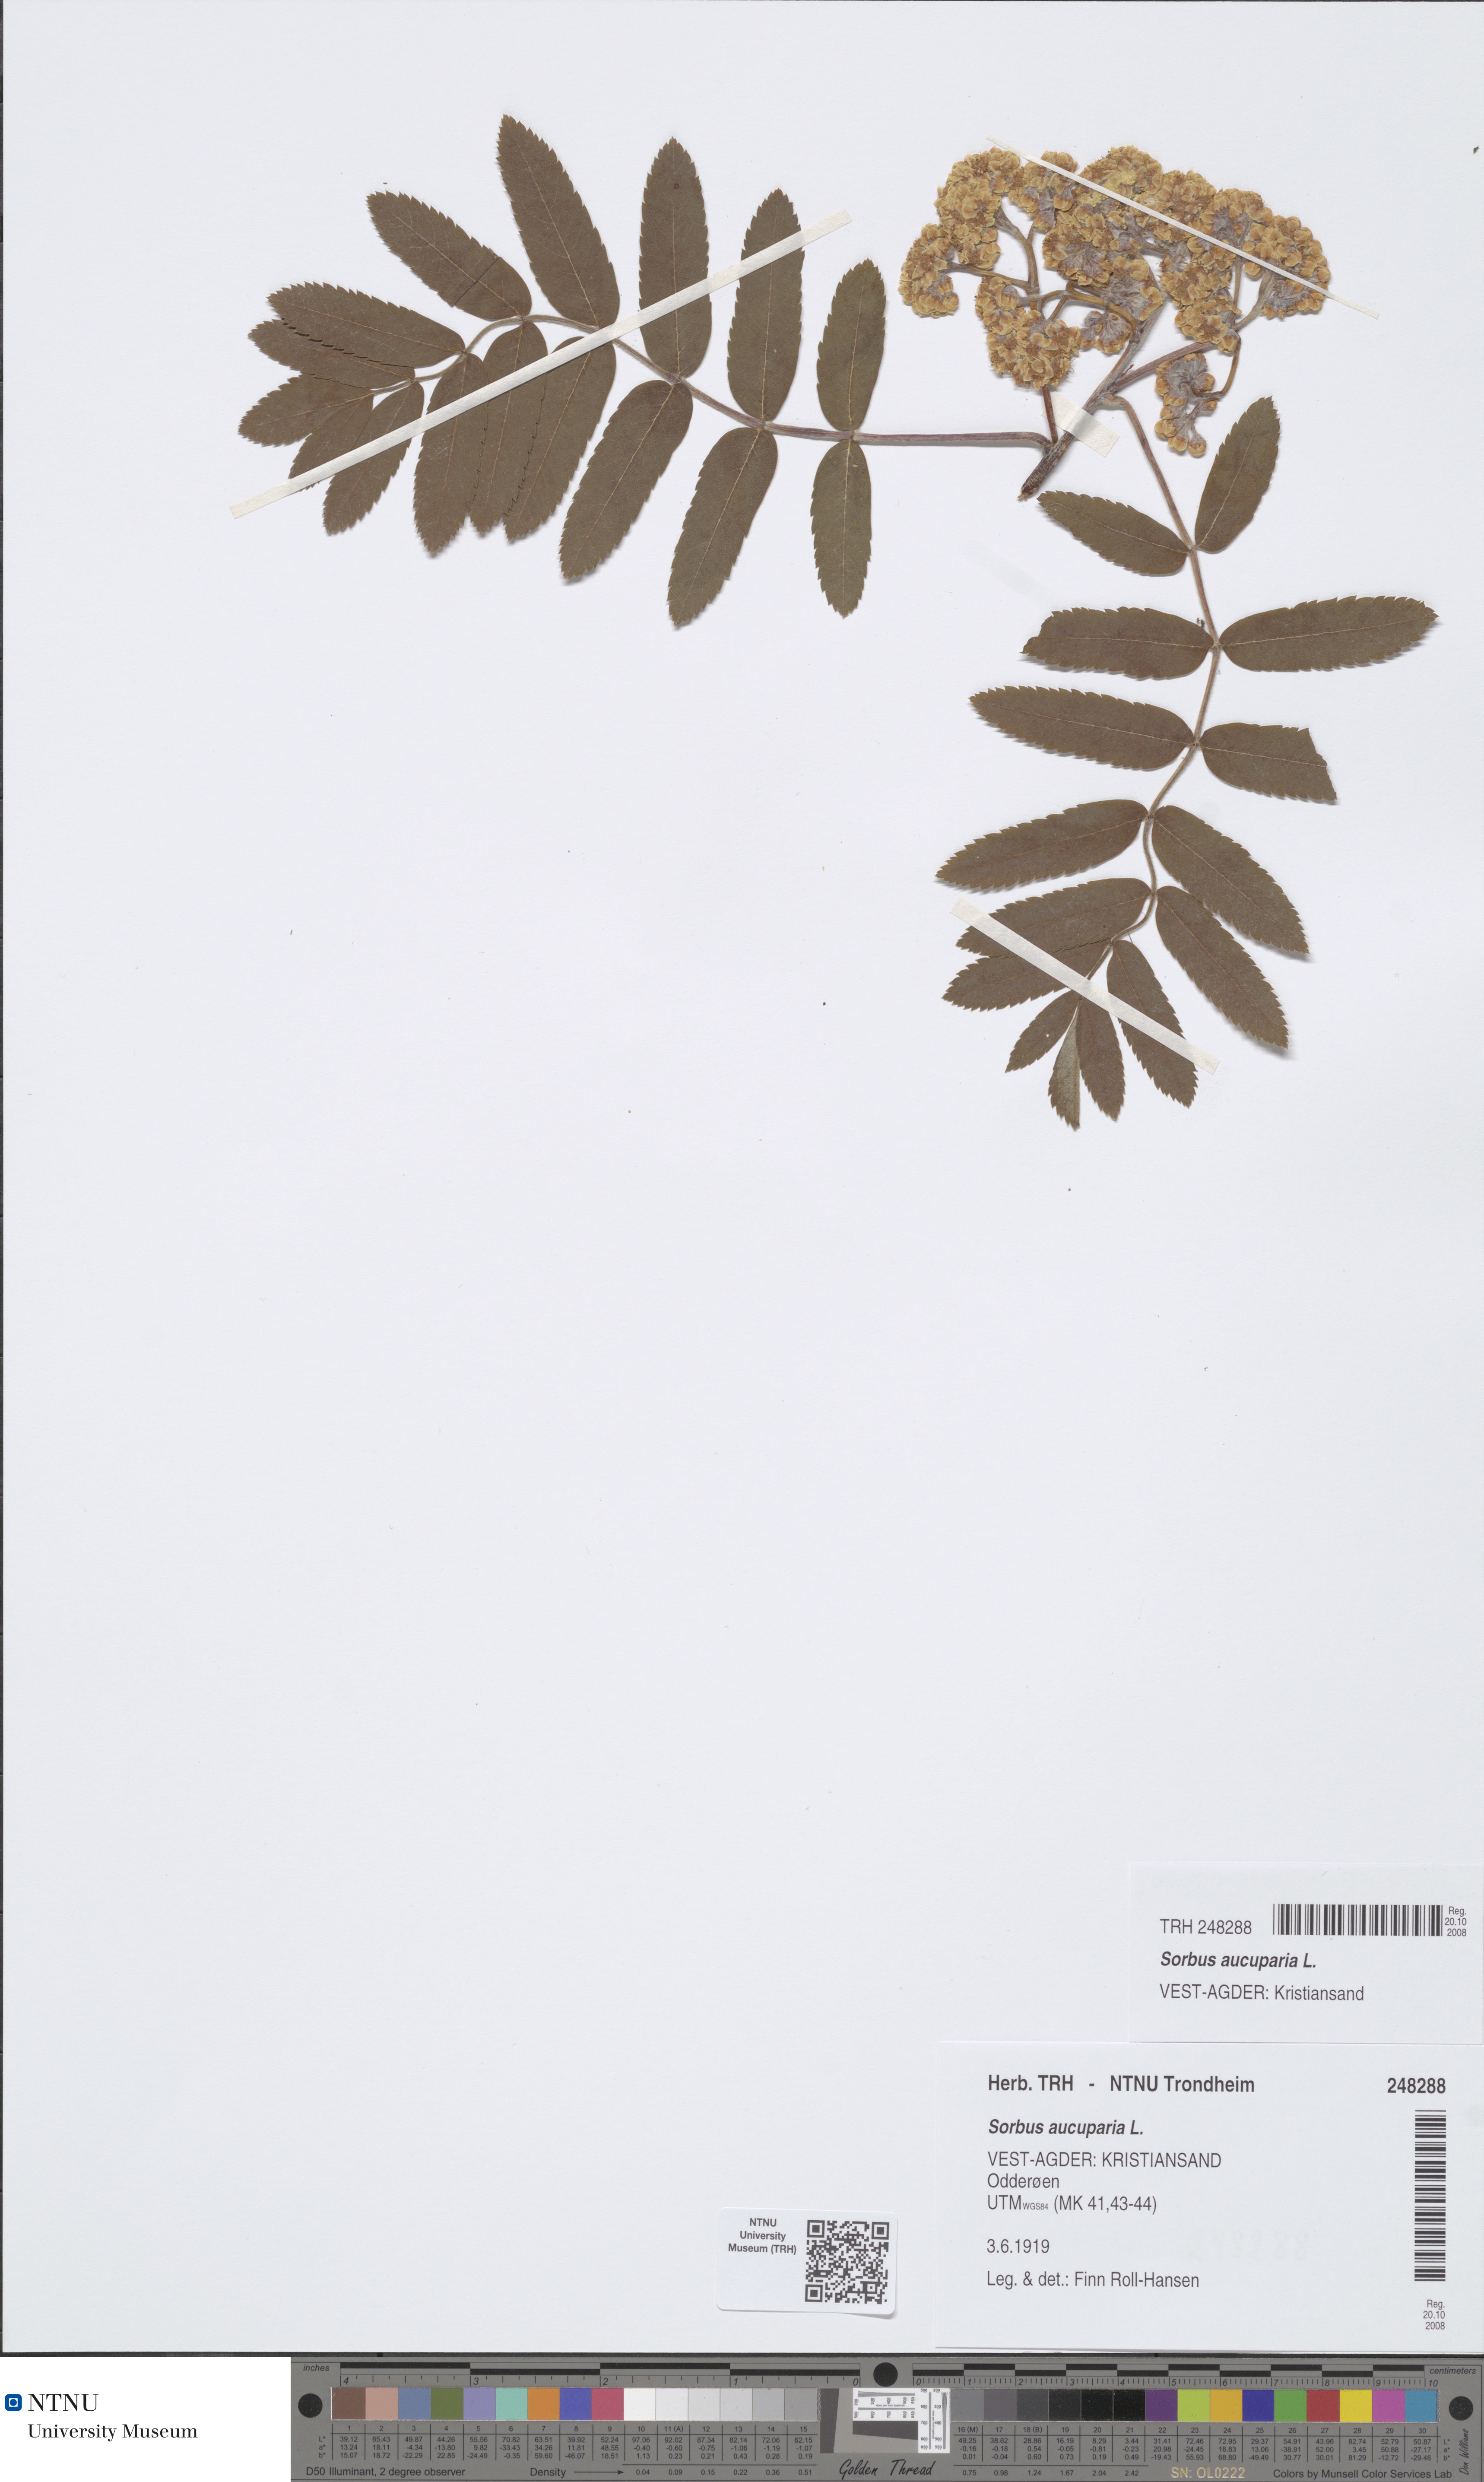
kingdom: Plantae
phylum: Tracheophyta
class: Magnoliopsida
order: Rosales
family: Rosaceae
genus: Sorbus
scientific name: Sorbus aucuparia
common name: Rowan
